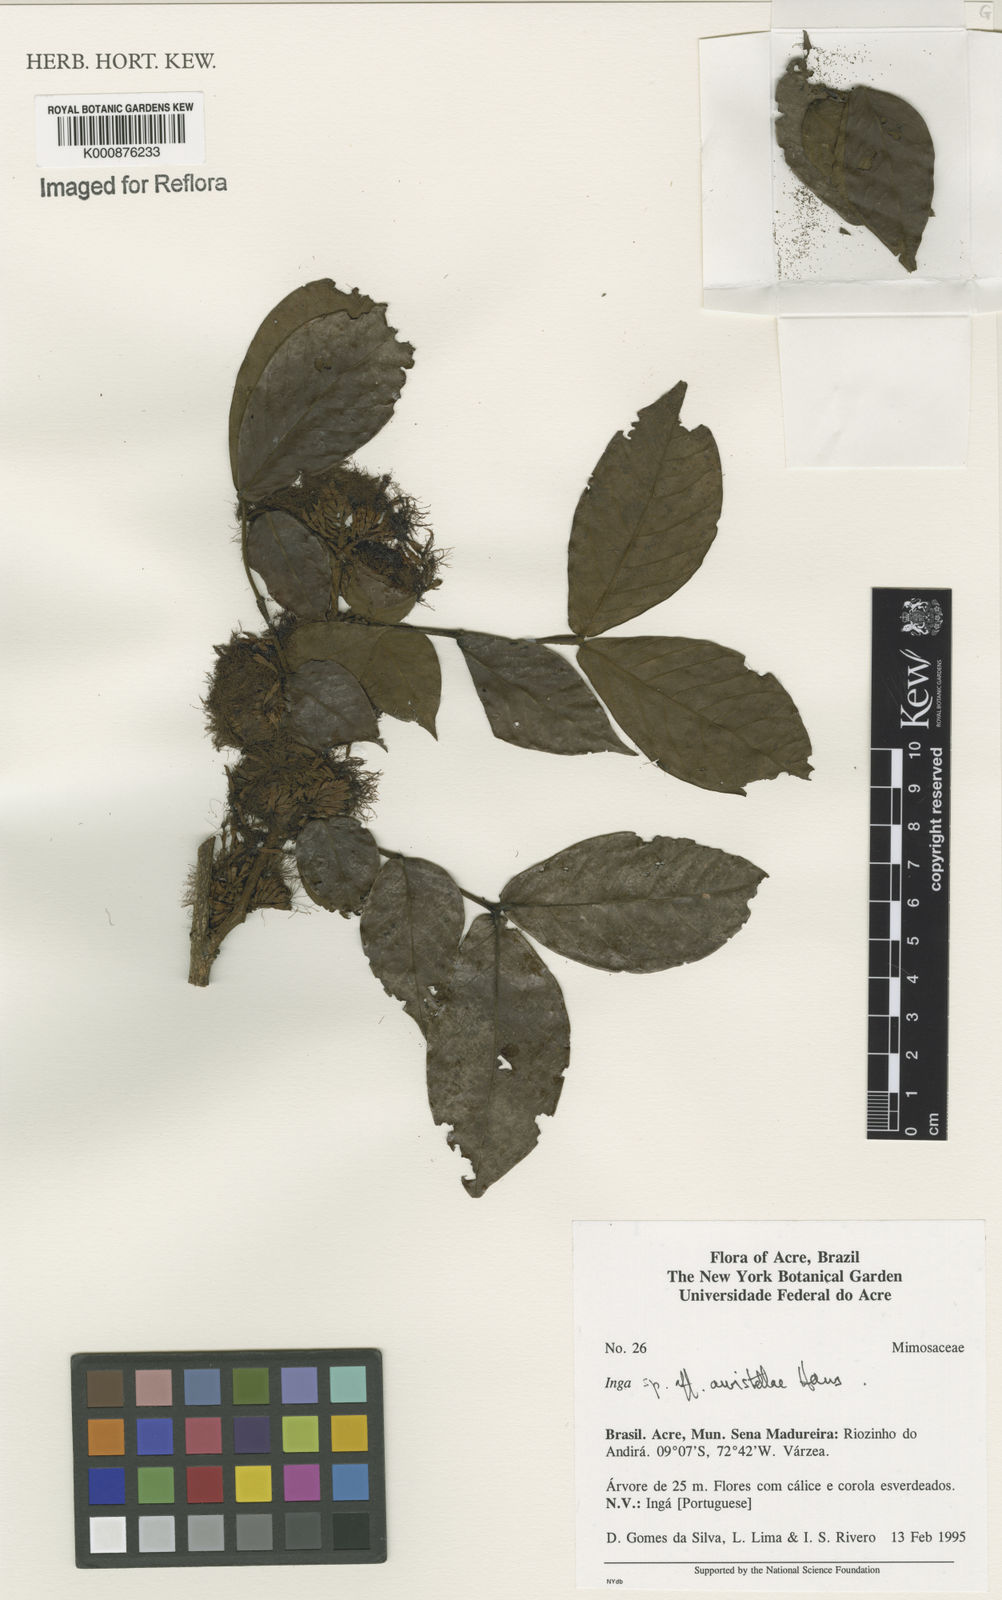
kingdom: Plantae
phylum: Tracheophyta
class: Magnoliopsida
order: Fabales
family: Fabaceae
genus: Inga
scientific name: Inga auristellae
